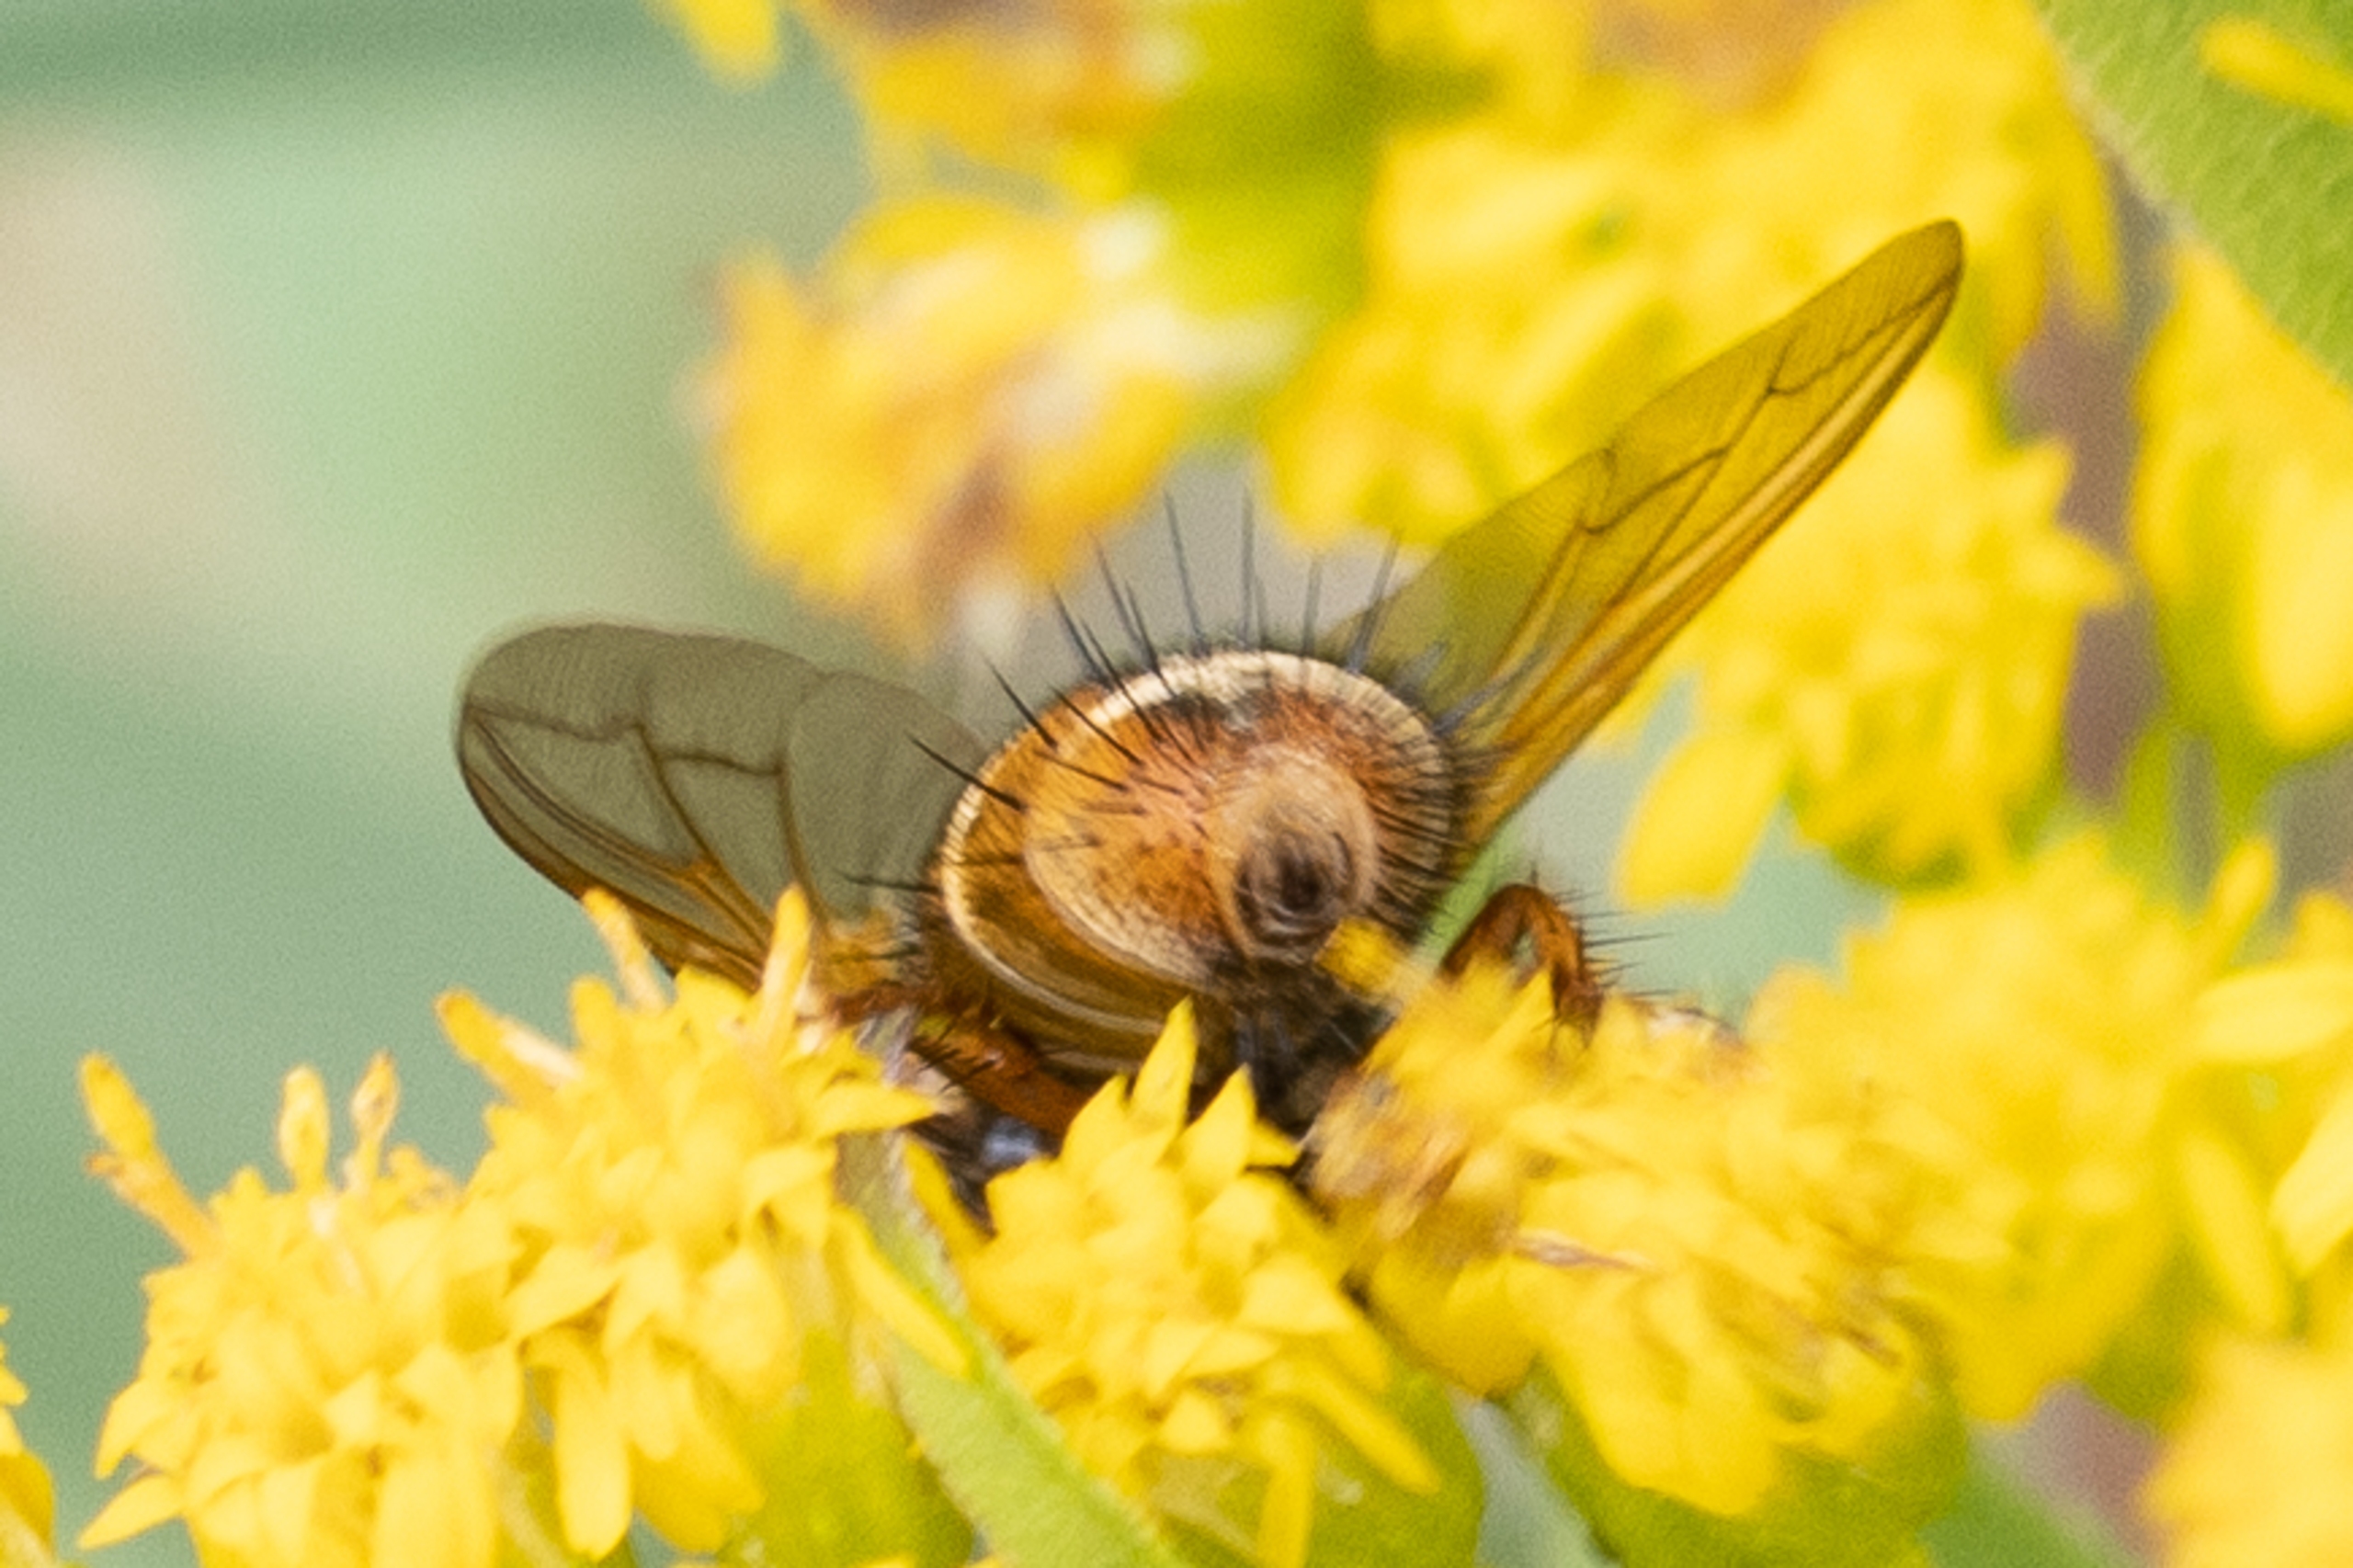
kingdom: Animalia
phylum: Arthropoda
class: Insecta
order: Diptera
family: Tachinidae
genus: Tachina
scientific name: Tachina fera
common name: Mellemfluen oskar
